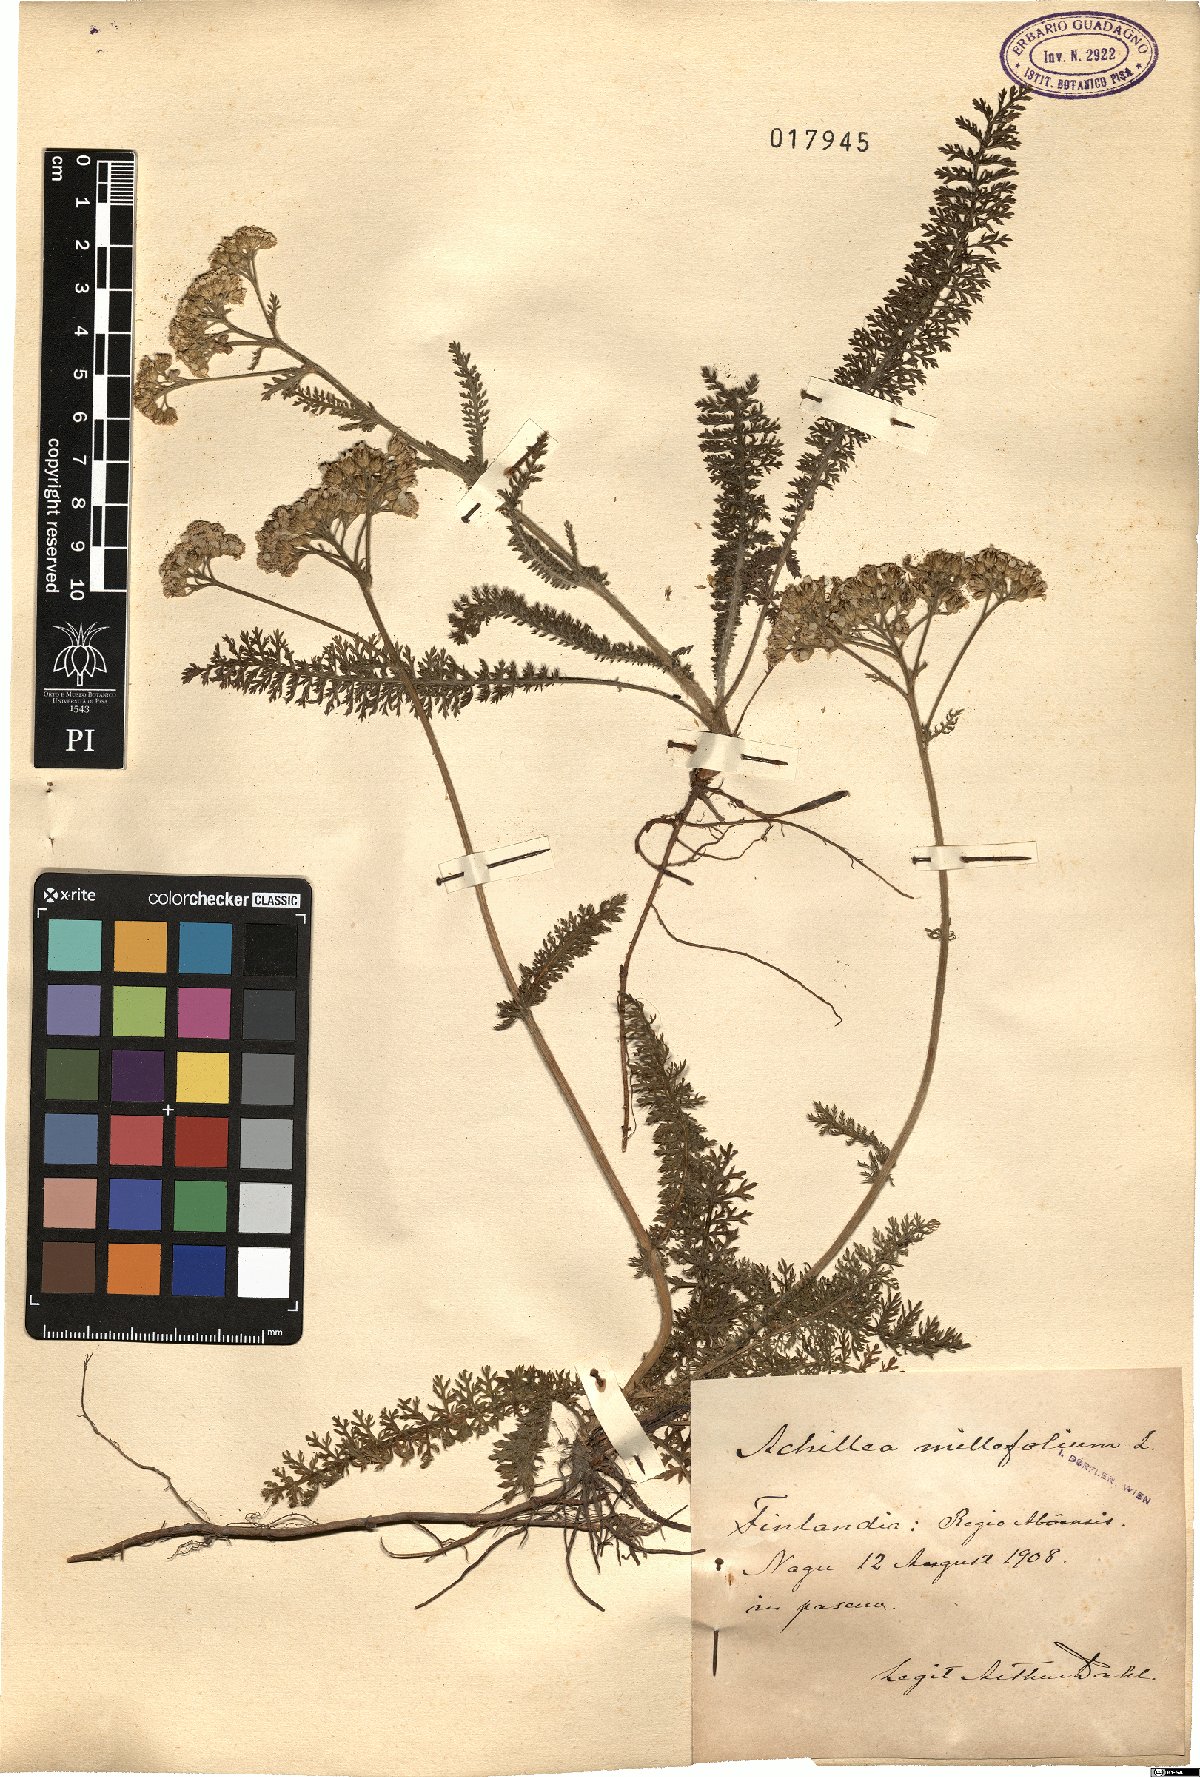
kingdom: Plantae
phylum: Tracheophyta
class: Magnoliopsida
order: Asterales
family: Asteraceae
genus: Achillea
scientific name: Achillea millefolium
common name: Yarrow
